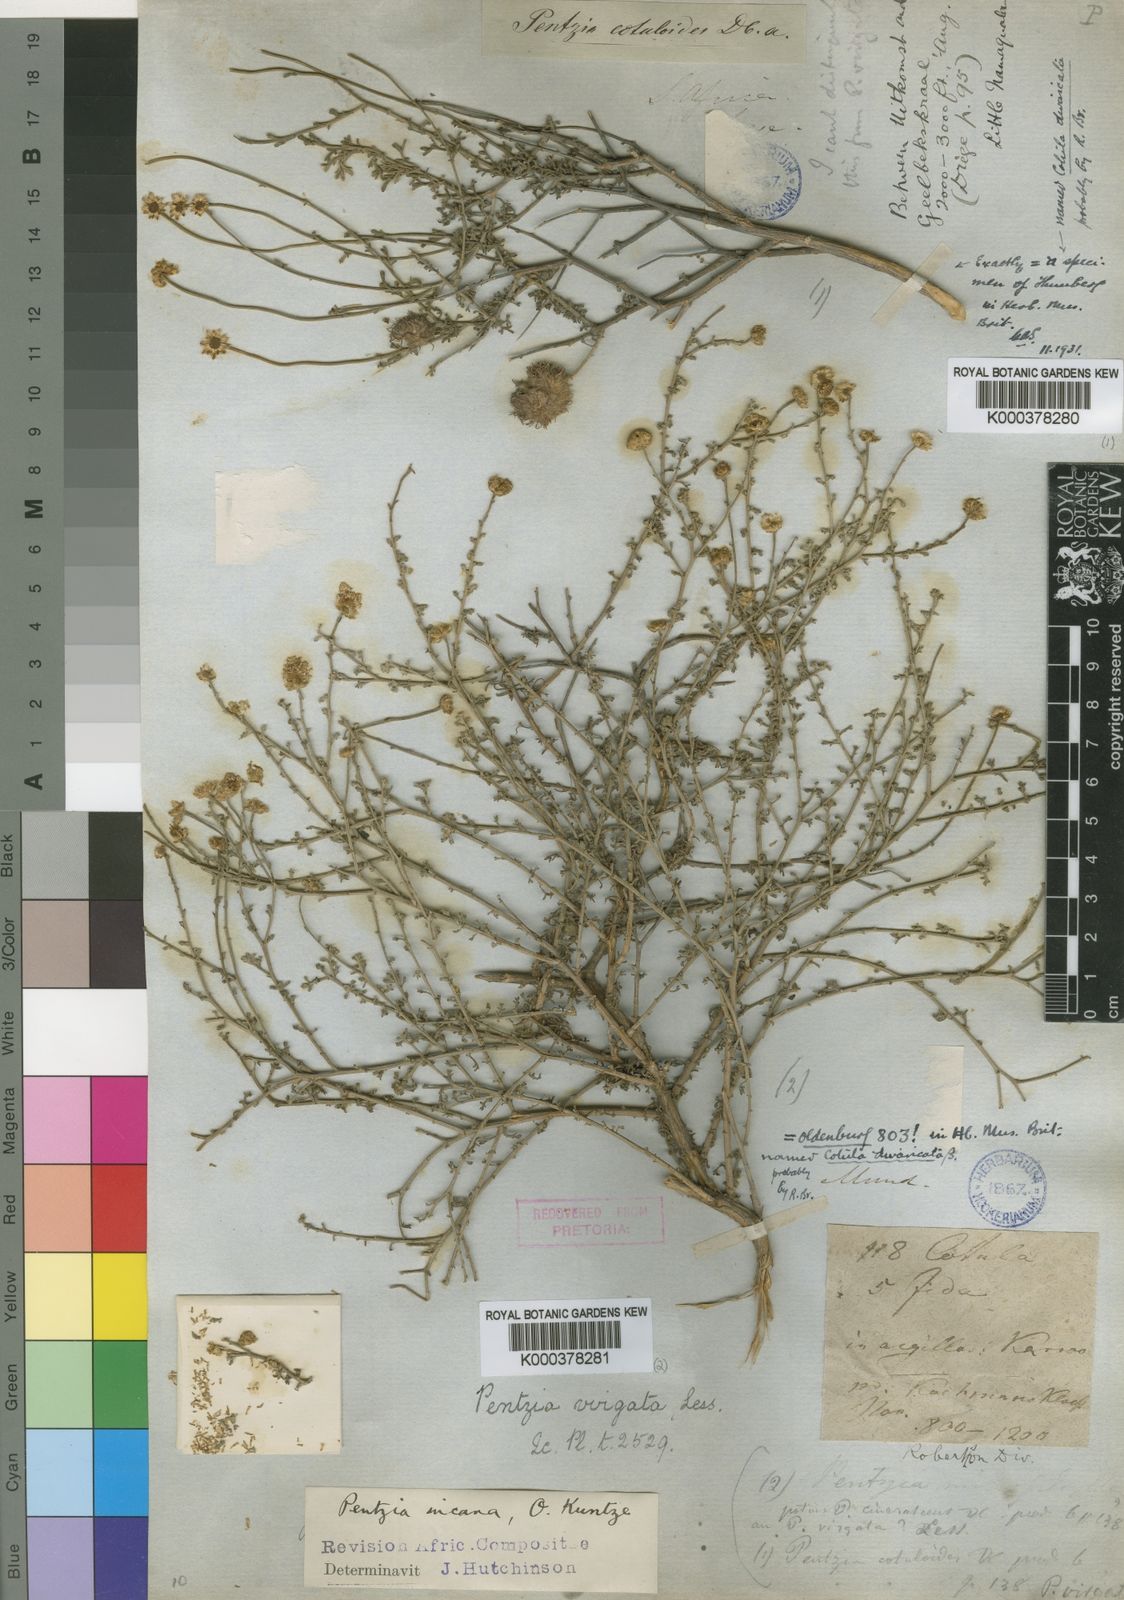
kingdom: Plantae
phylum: Tracheophyta
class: Magnoliopsida
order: Asterales
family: Asteraceae
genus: Pentzia
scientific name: Pentzia incana
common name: African sheepbush
